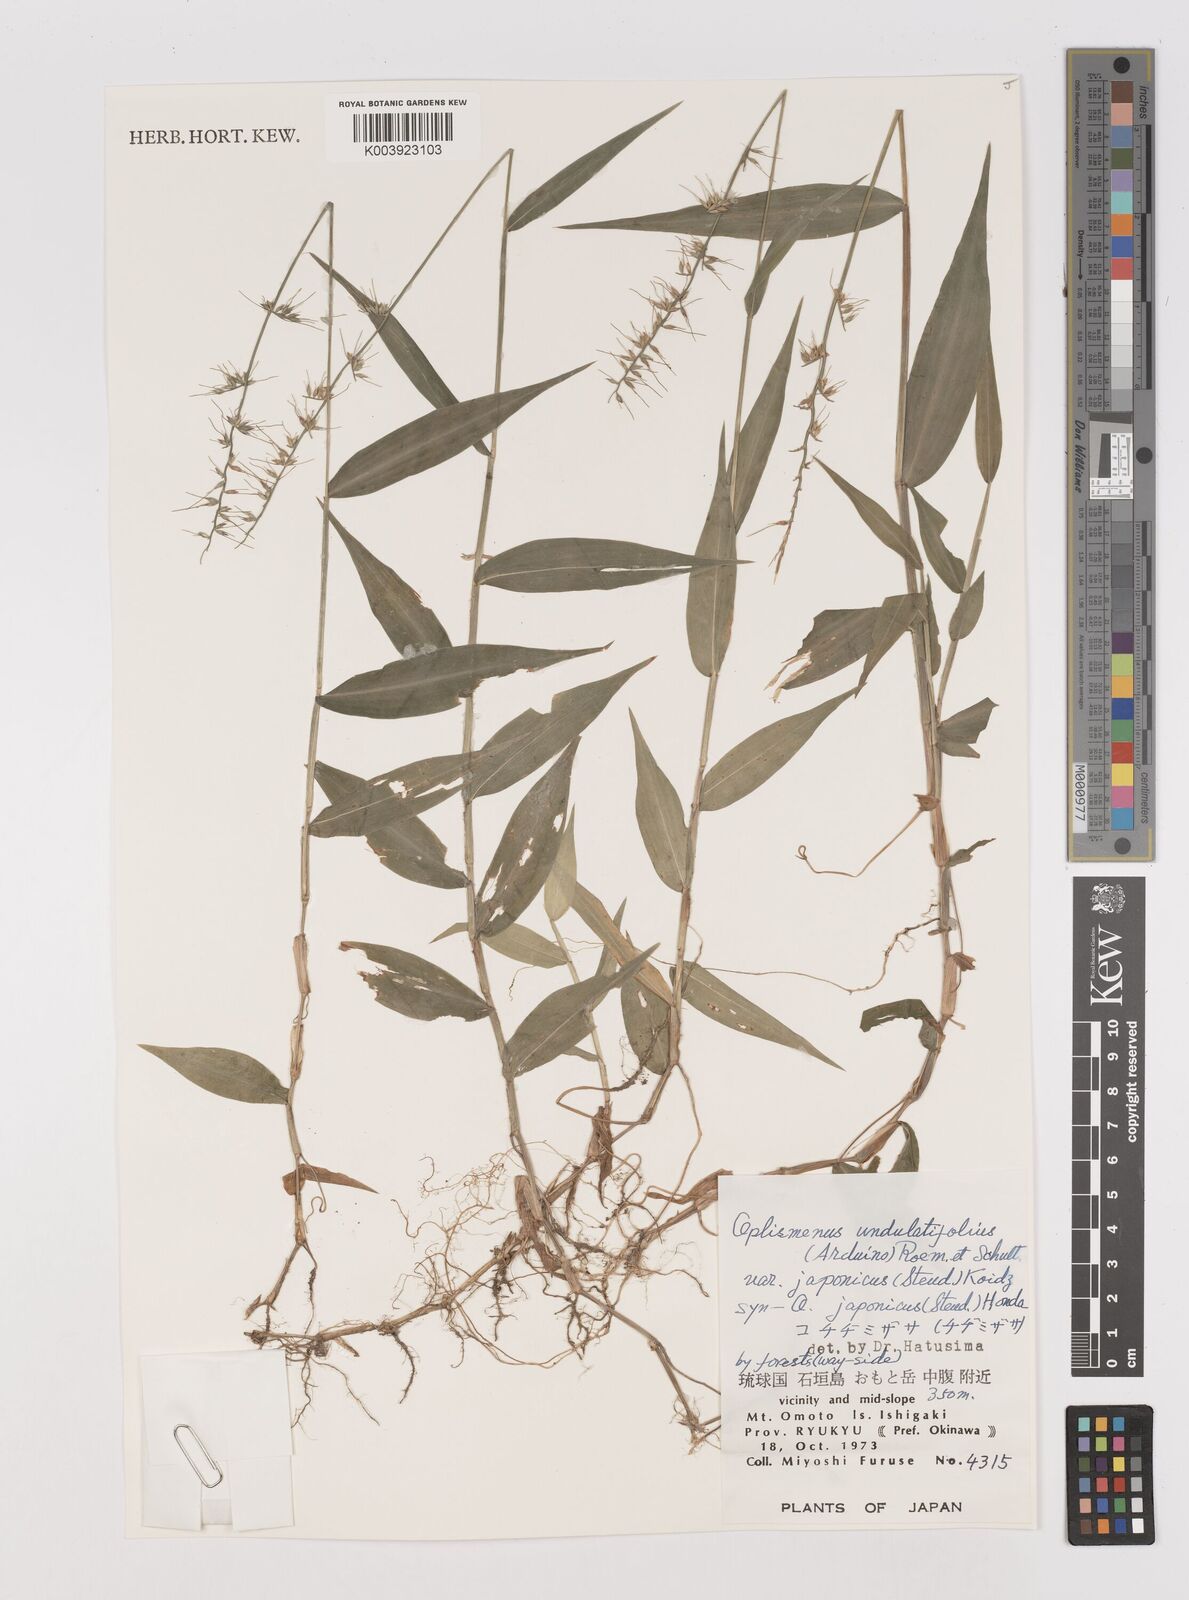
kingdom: Plantae
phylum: Tracheophyta
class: Liliopsida
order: Poales
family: Poaceae
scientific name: Poaceae
